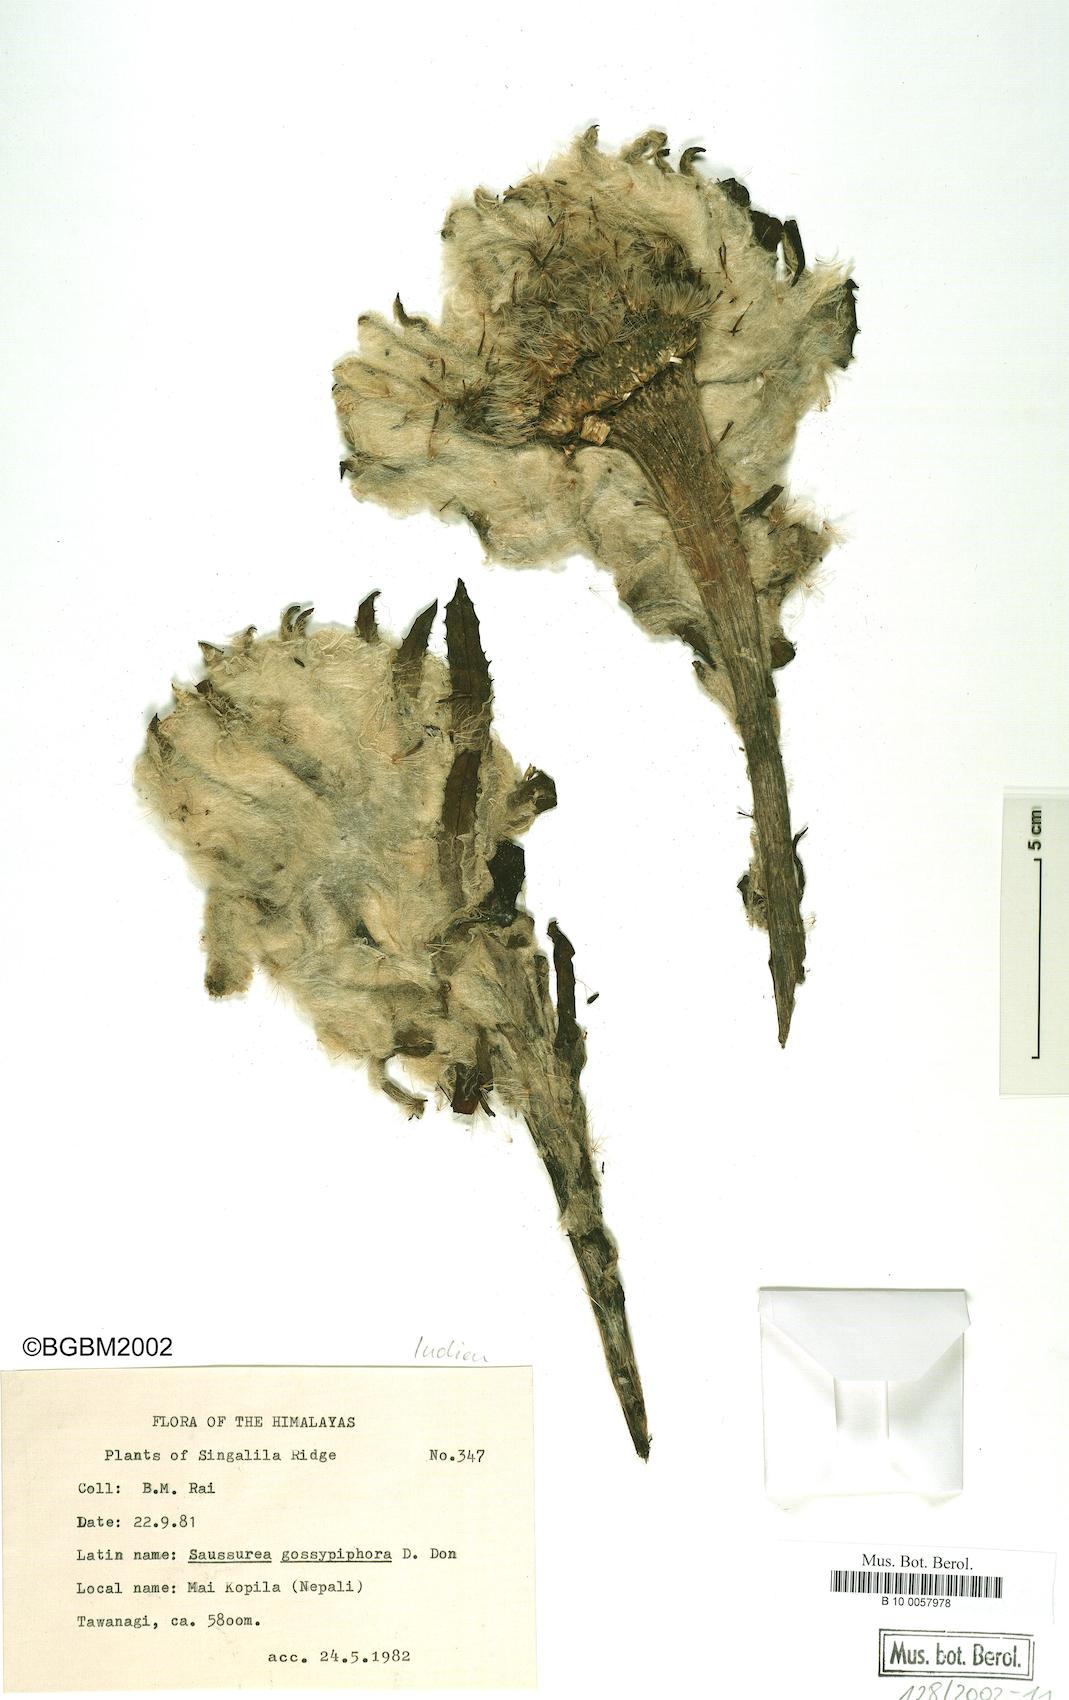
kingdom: Plantae
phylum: Tracheophyta
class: Magnoliopsida
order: Asterales
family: Asteraceae
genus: Saussurea
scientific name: Saussurea gossypiphora
